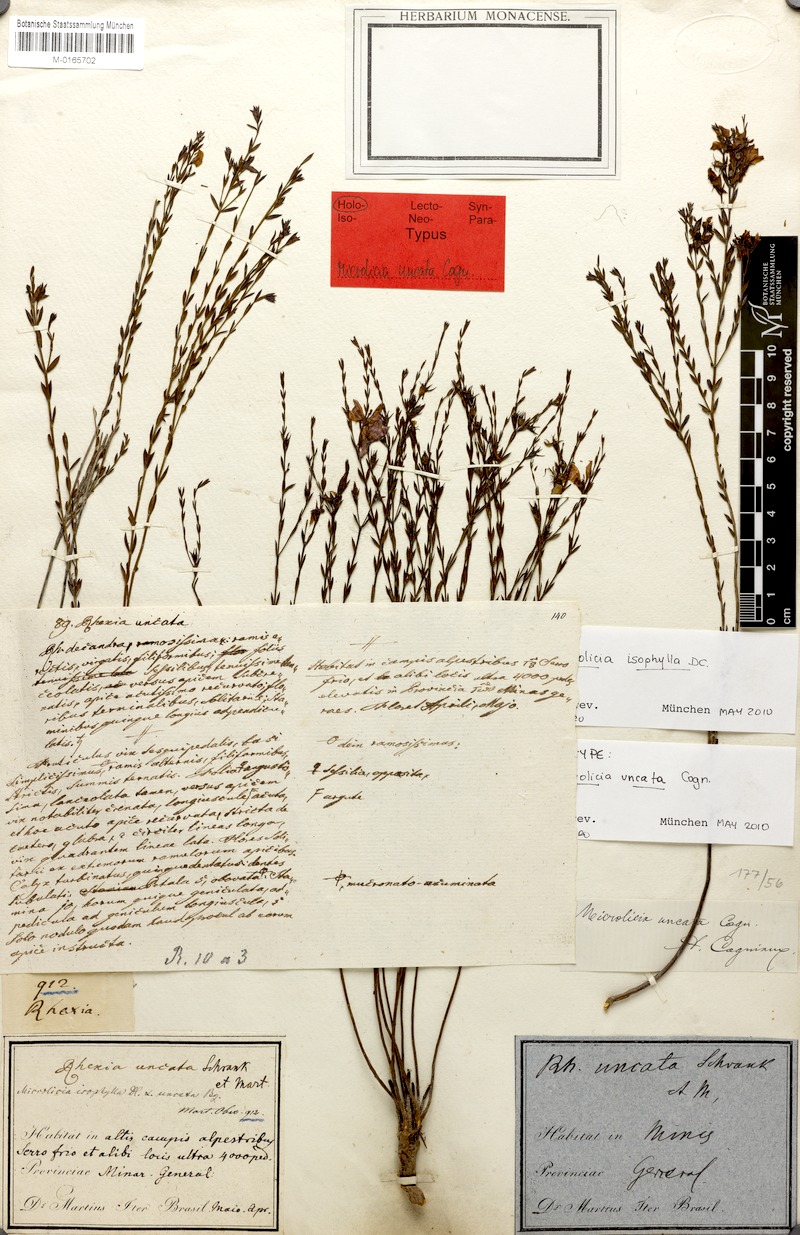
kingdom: Plantae
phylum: Tracheophyta
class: Magnoliopsida
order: Myrtales
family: Melastomataceae
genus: Microlicia
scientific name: Microlicia isophylla
